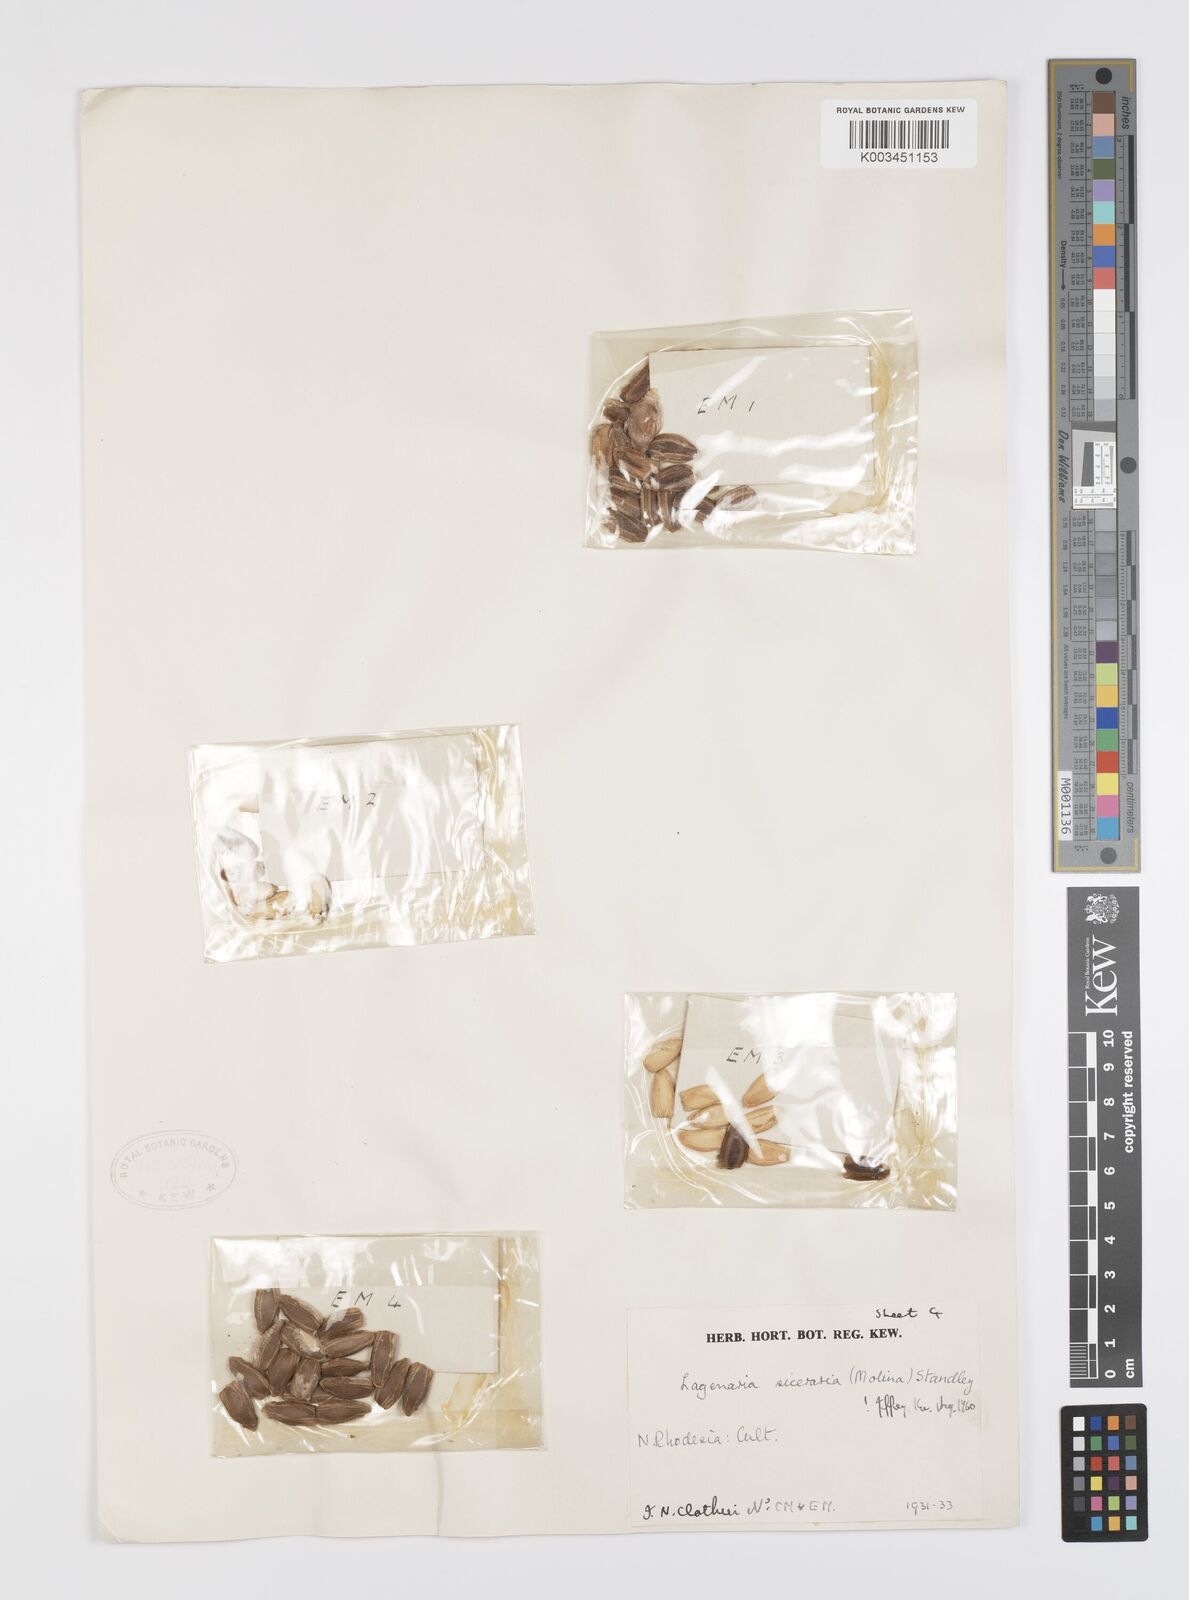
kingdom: Plantae
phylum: Tracheophyta
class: Magnoliopsida
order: Cucurbitales
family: Cucurbitaceae
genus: Lagenaria
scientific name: Lagenaria siceraria
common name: Bottle gourd
